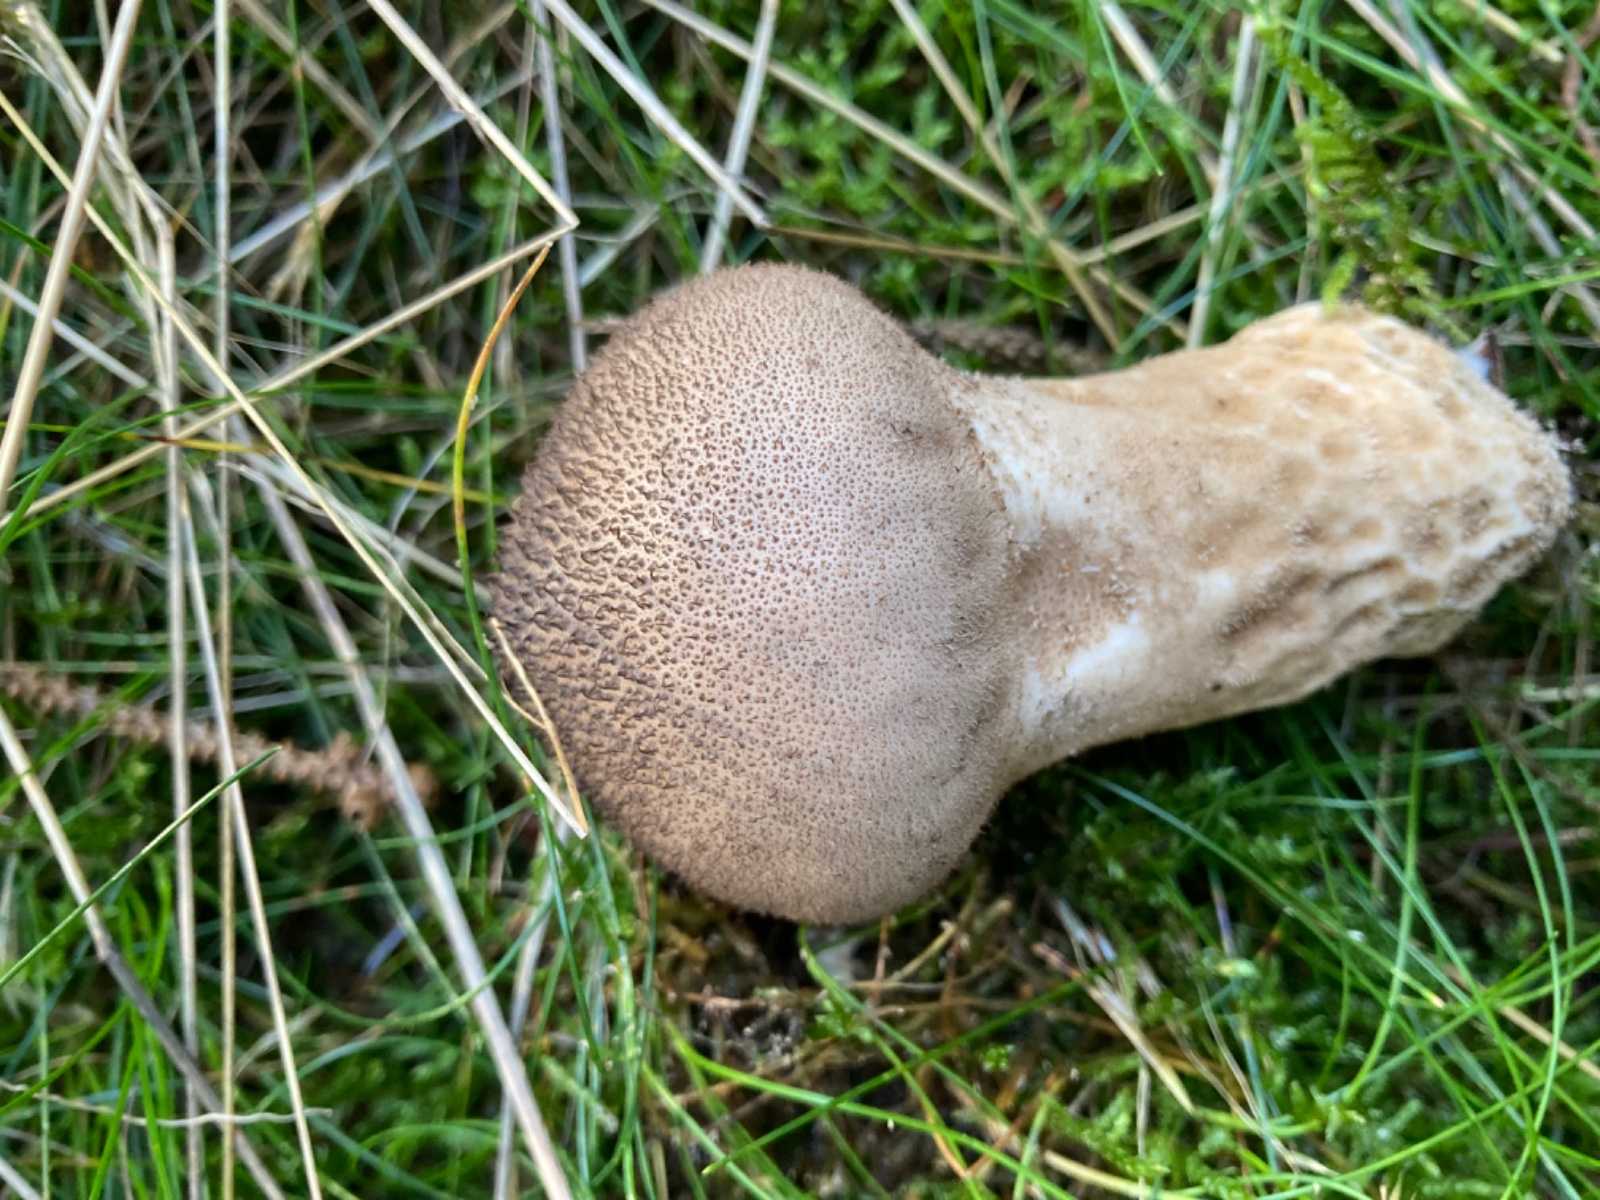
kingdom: Fungi
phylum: Basidiomycota
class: Agaricomycetes
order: Agaricales
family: Lycoperdaceae
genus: Lycoperdon
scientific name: Lycoperdon nigrescens
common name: sortagtig støvbold
